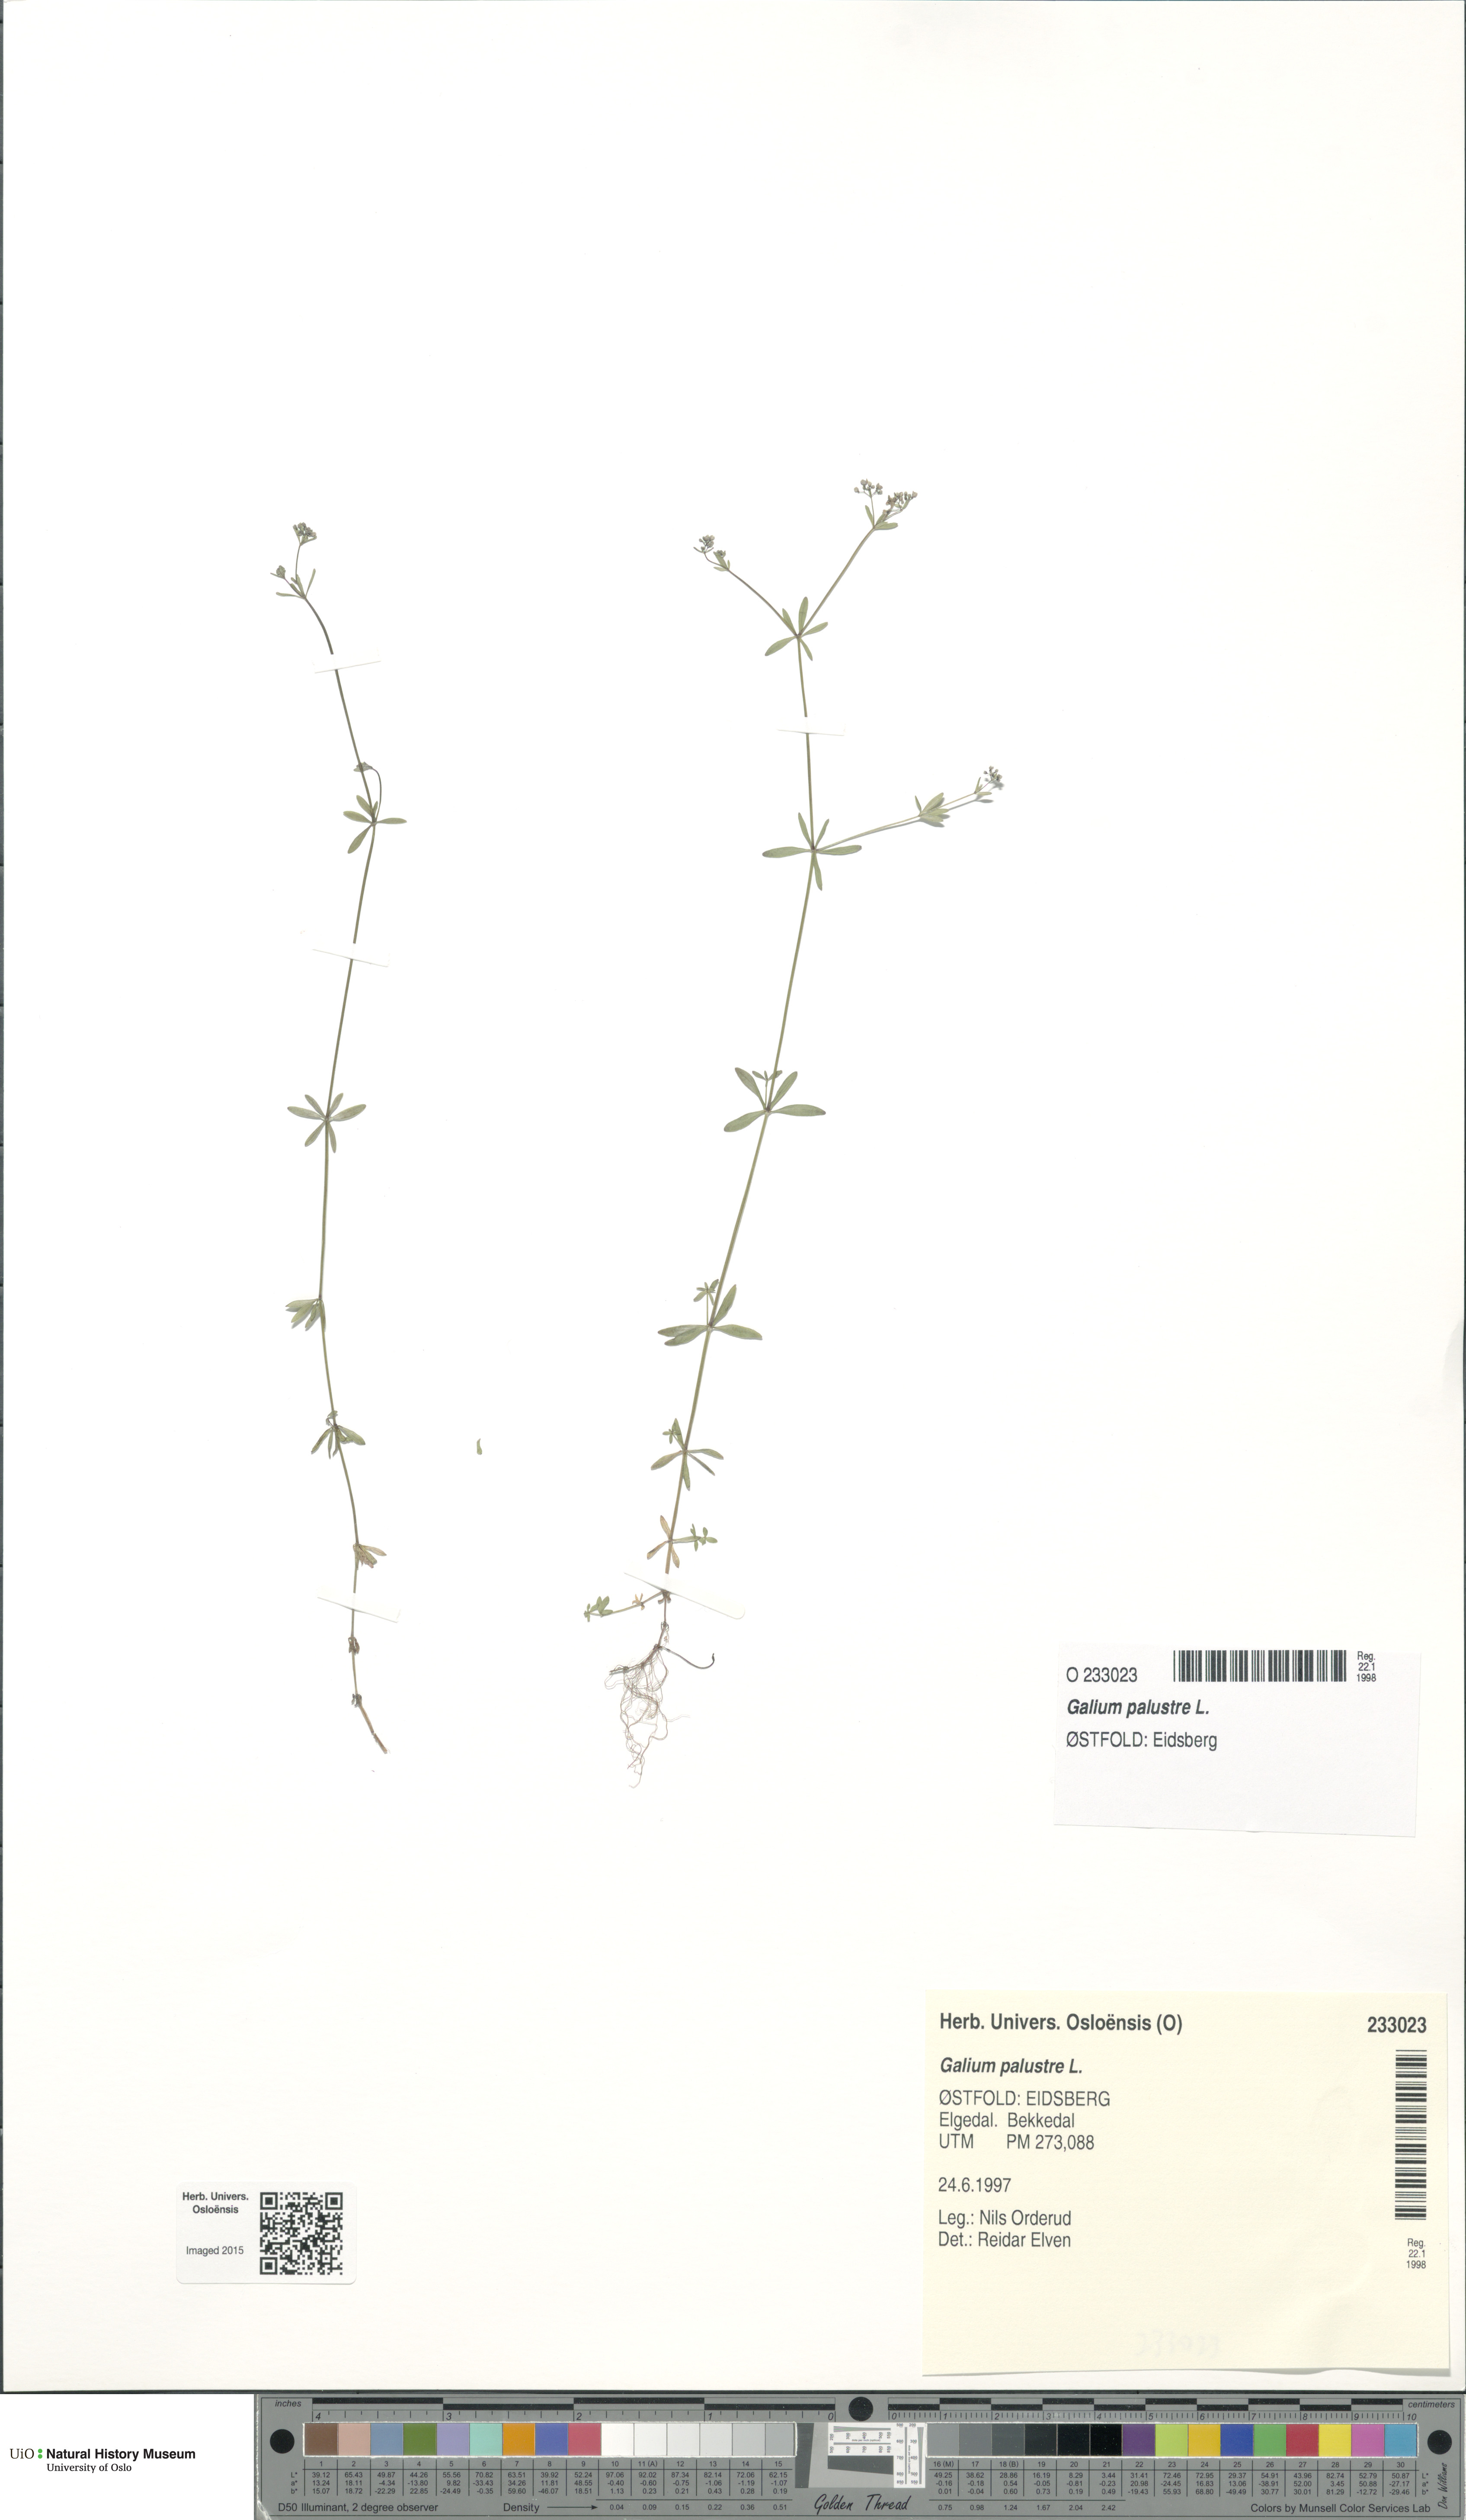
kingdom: Plantae
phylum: Tracheophyta
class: Magnoliopsida
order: Gentianales
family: Rubiaceae
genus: Galium
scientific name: Galium palustre
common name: Common marsh-bedstraw
